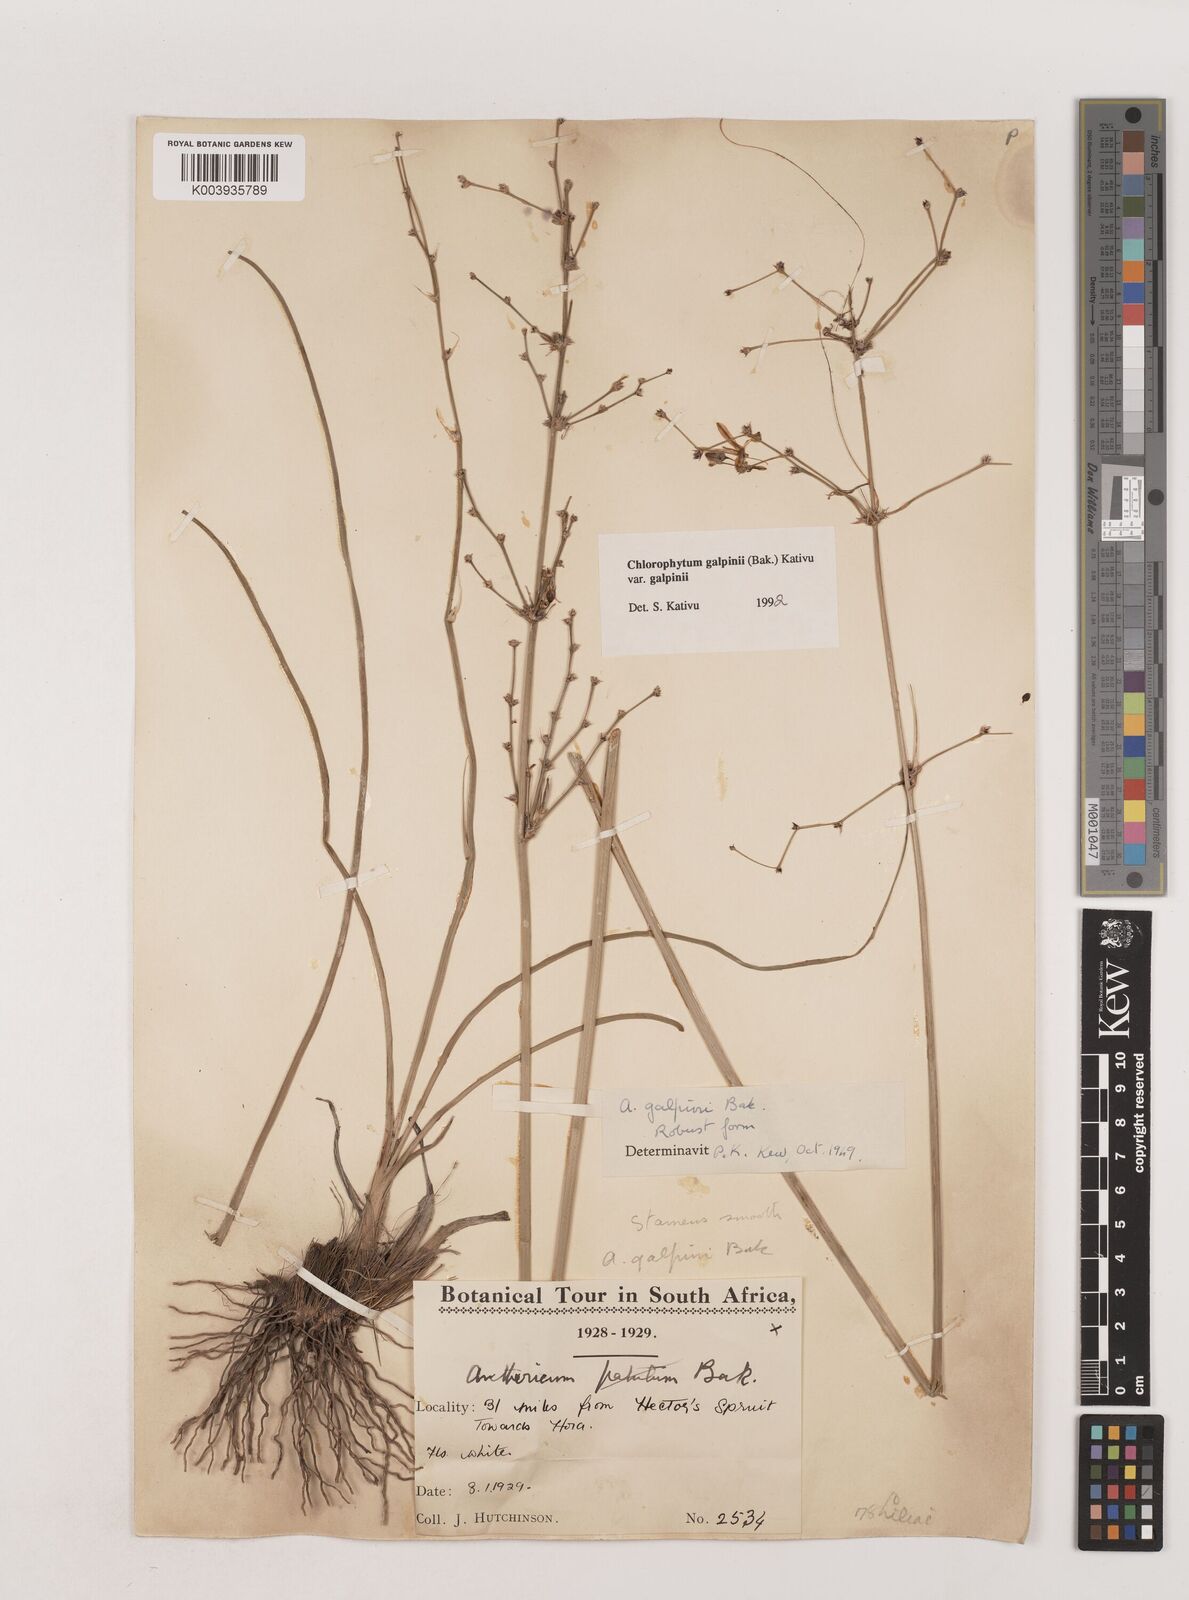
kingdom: Plantae
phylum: Tracheophyta
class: Liliopsida
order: Asparagales
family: Asparagaceae
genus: Chlorophytum
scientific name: Chlorophytum galpinii
